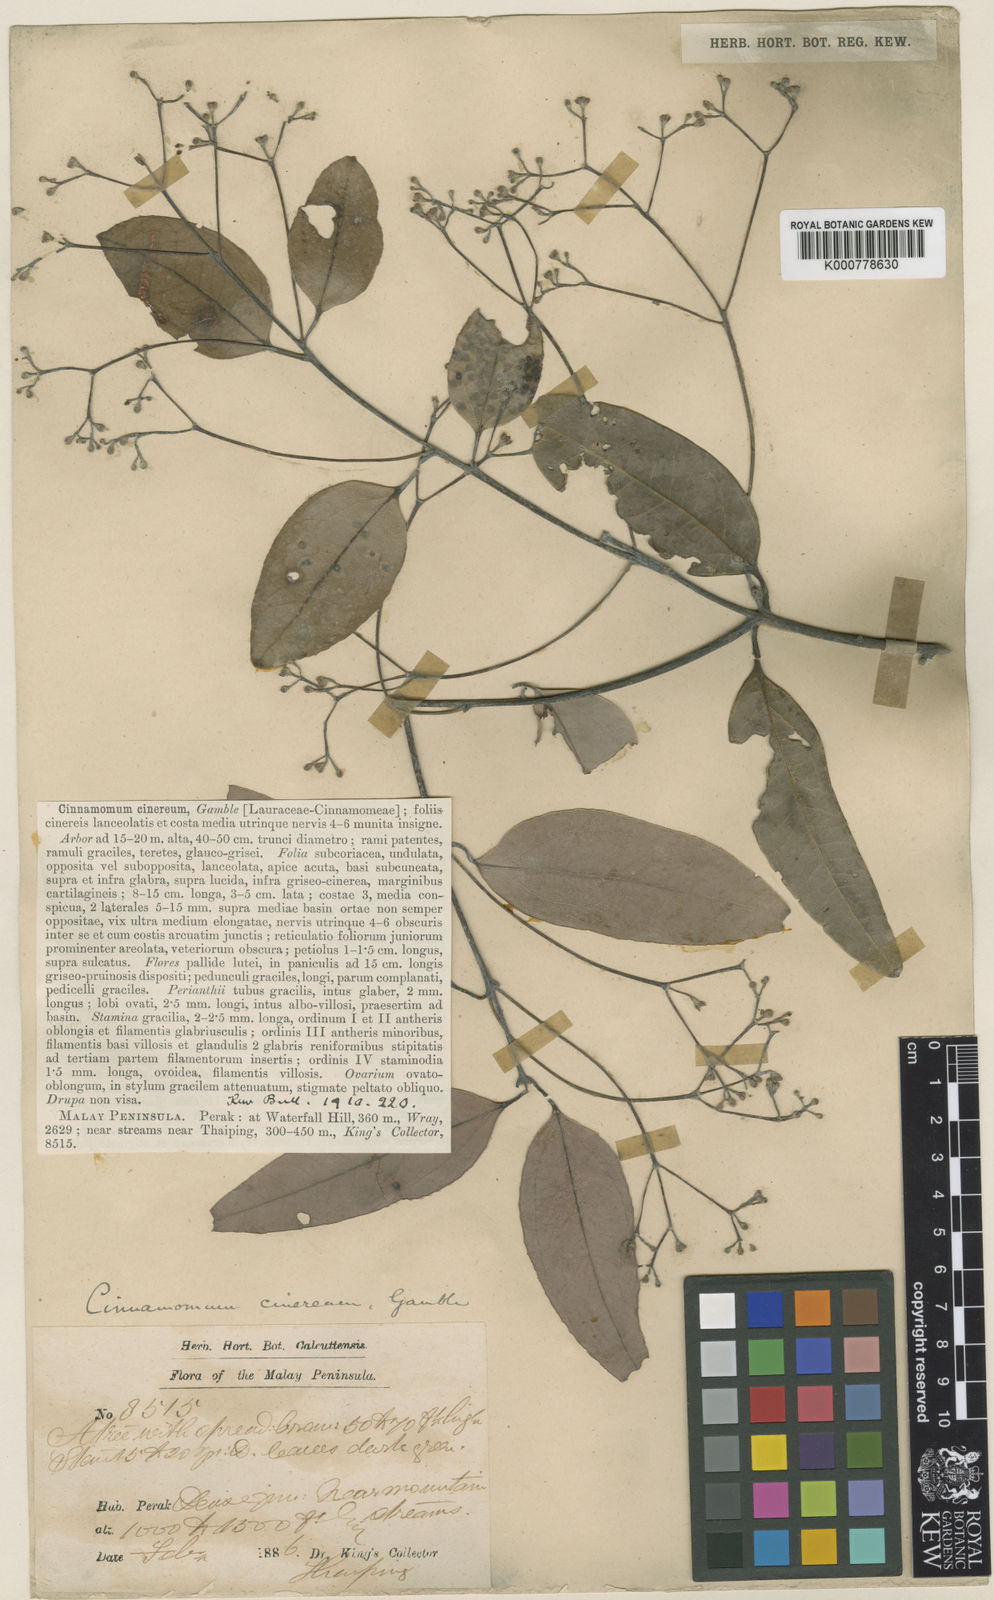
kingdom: Plantae
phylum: Tracheophyta
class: Magnoliopsida
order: Laurales
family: Lauraceae
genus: Cinnamomum
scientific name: Cinnamomum sintoc
